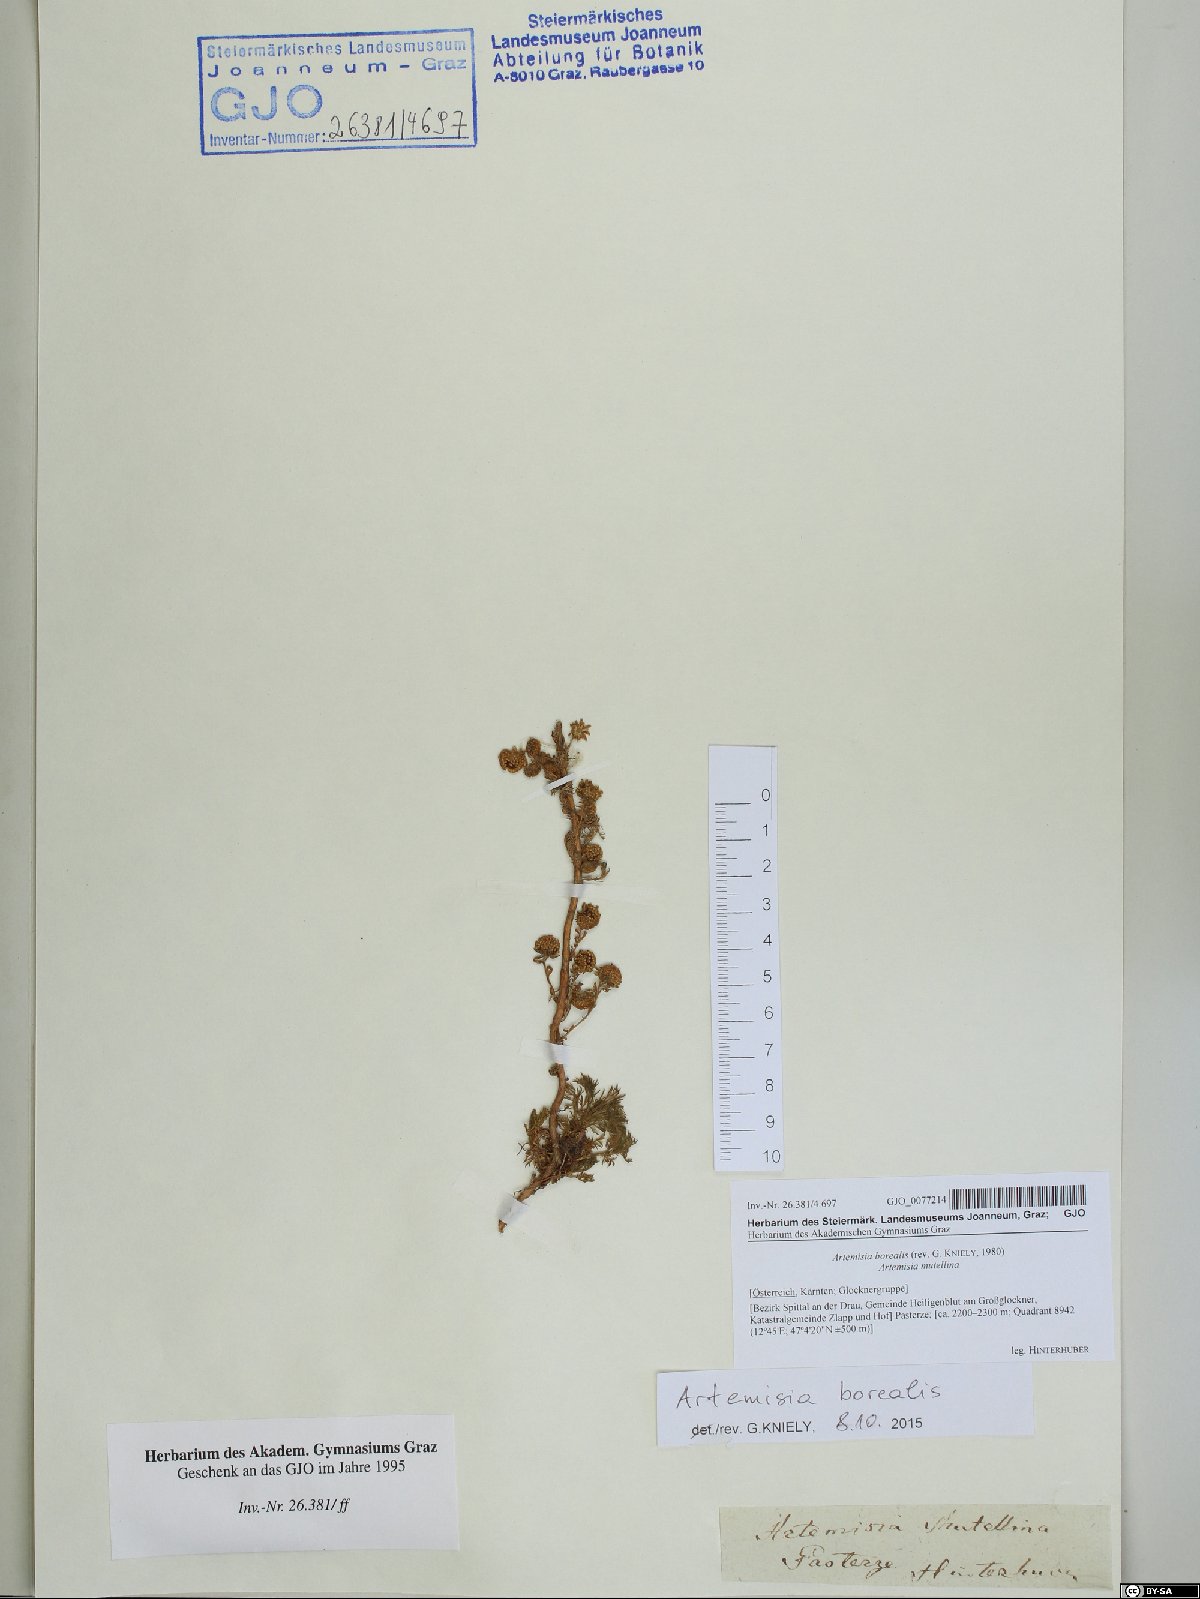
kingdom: Plantae
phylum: Tracheophyta
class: Magnoliopsida
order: Asterales
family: Asteraceae
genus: Artemisia
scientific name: Artemisia borealis
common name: Boreal sage
